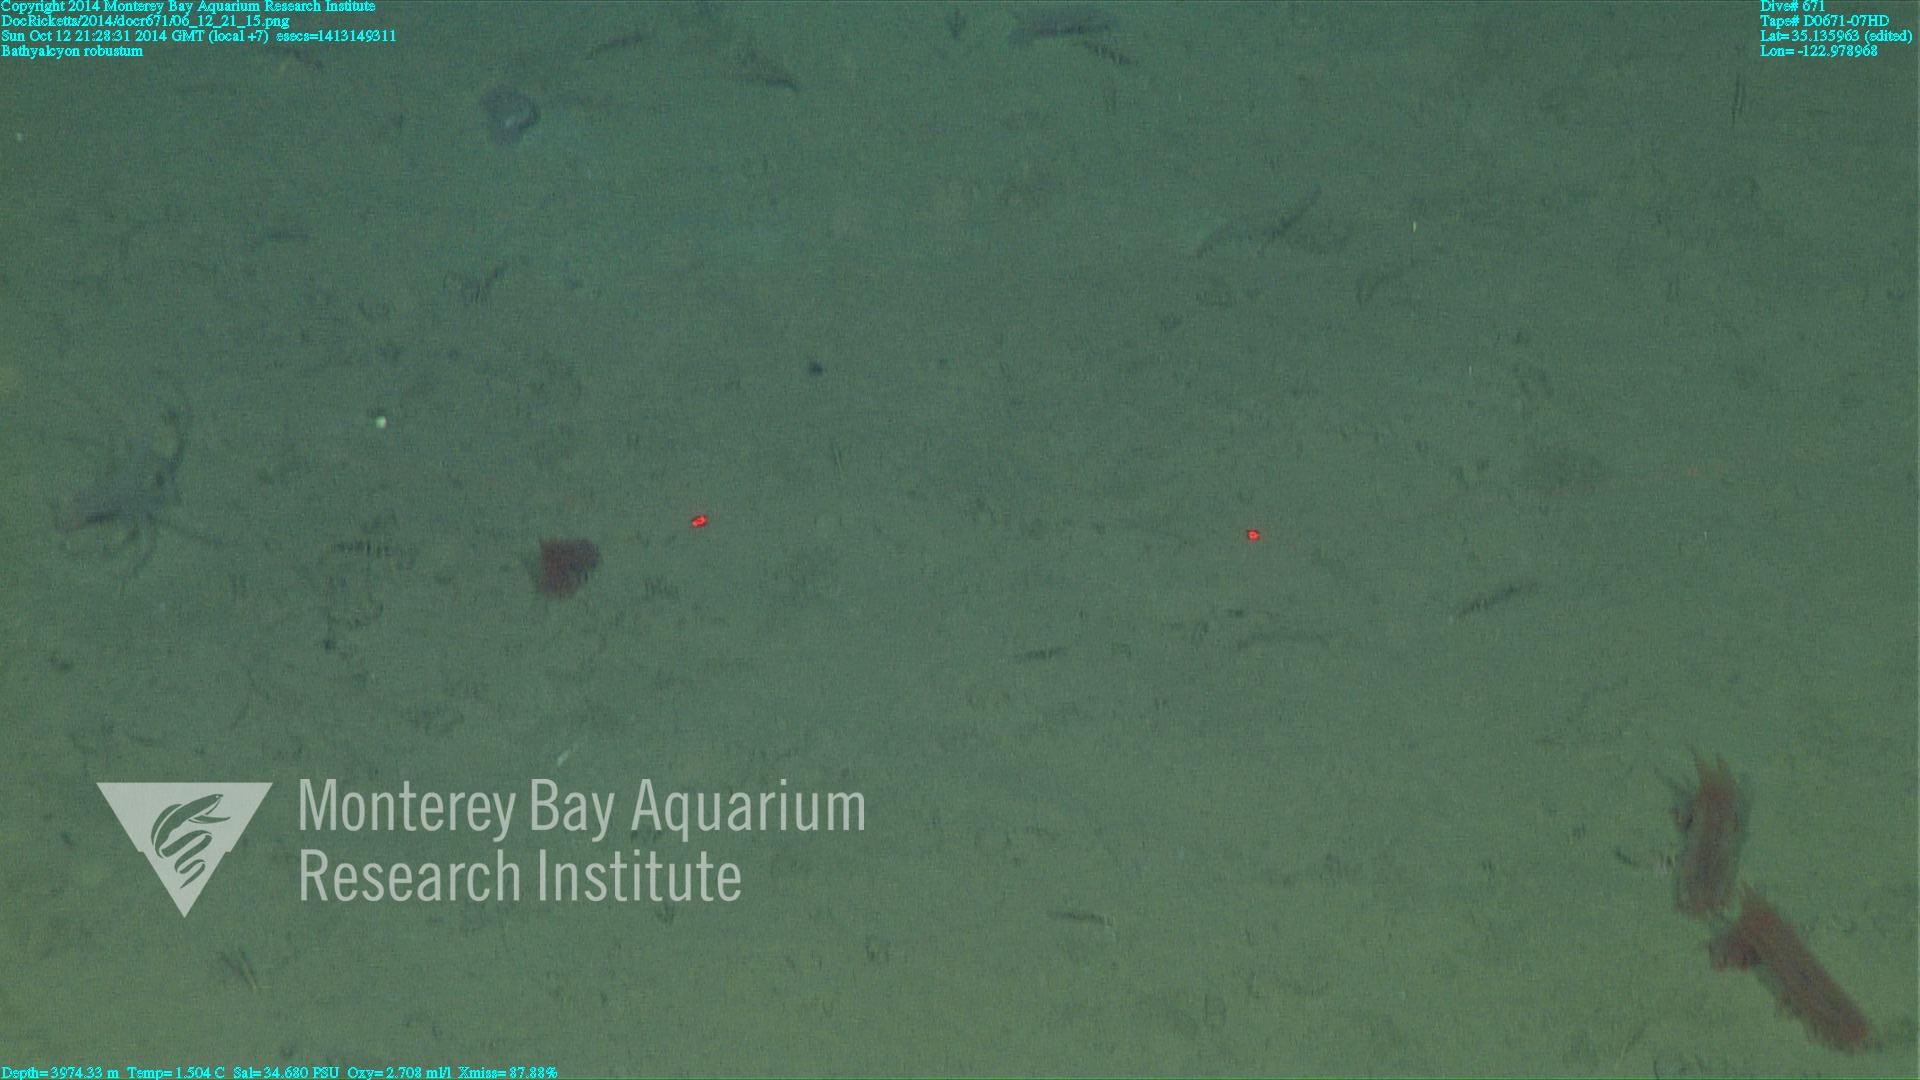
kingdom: Animalia
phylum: Cnidaria
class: Anthozoa
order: Scleralcyonacea
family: Coralliidae
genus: Bathyalcyon
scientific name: Bathyalcyon robustum
